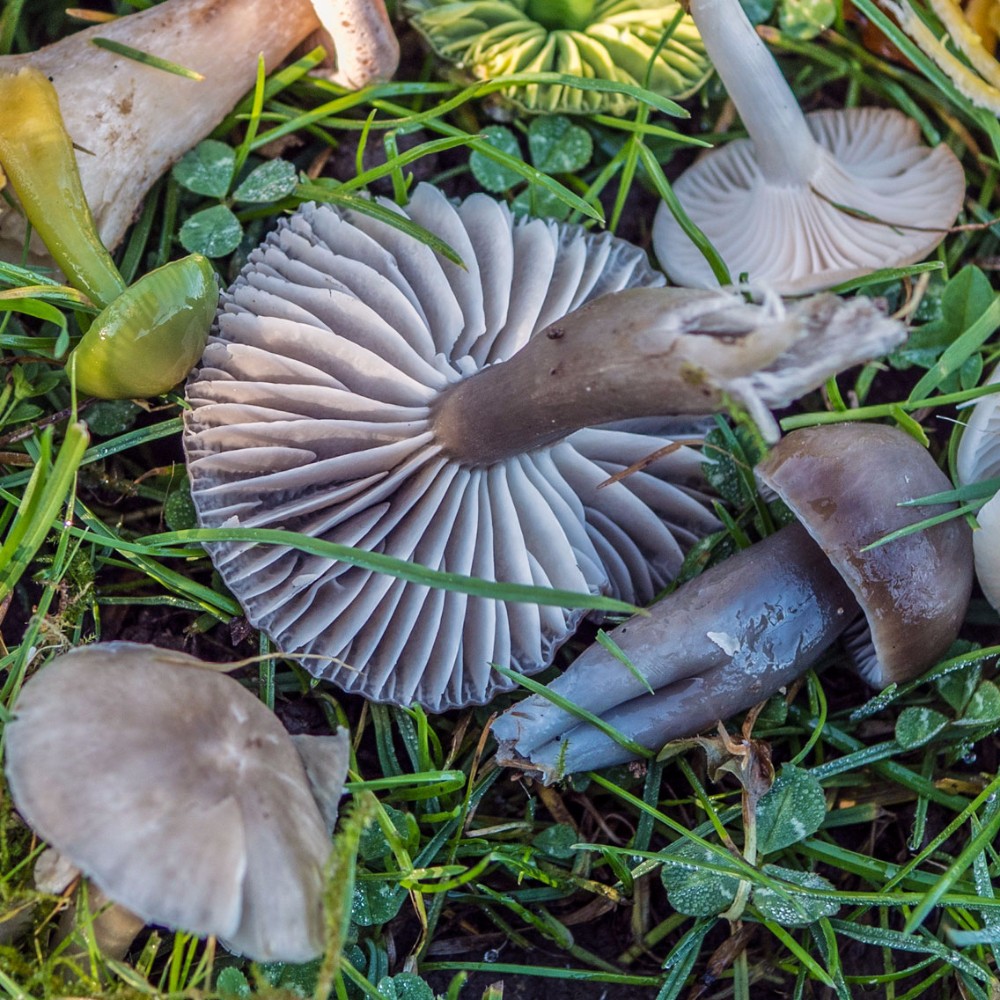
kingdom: Fungi
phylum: Basidiomycota
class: Agaricomycetes
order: Agaricales
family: Hygrophoraceae
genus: Gliophorus
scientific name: Gliophorus irrigatus
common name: slimet vokshat
